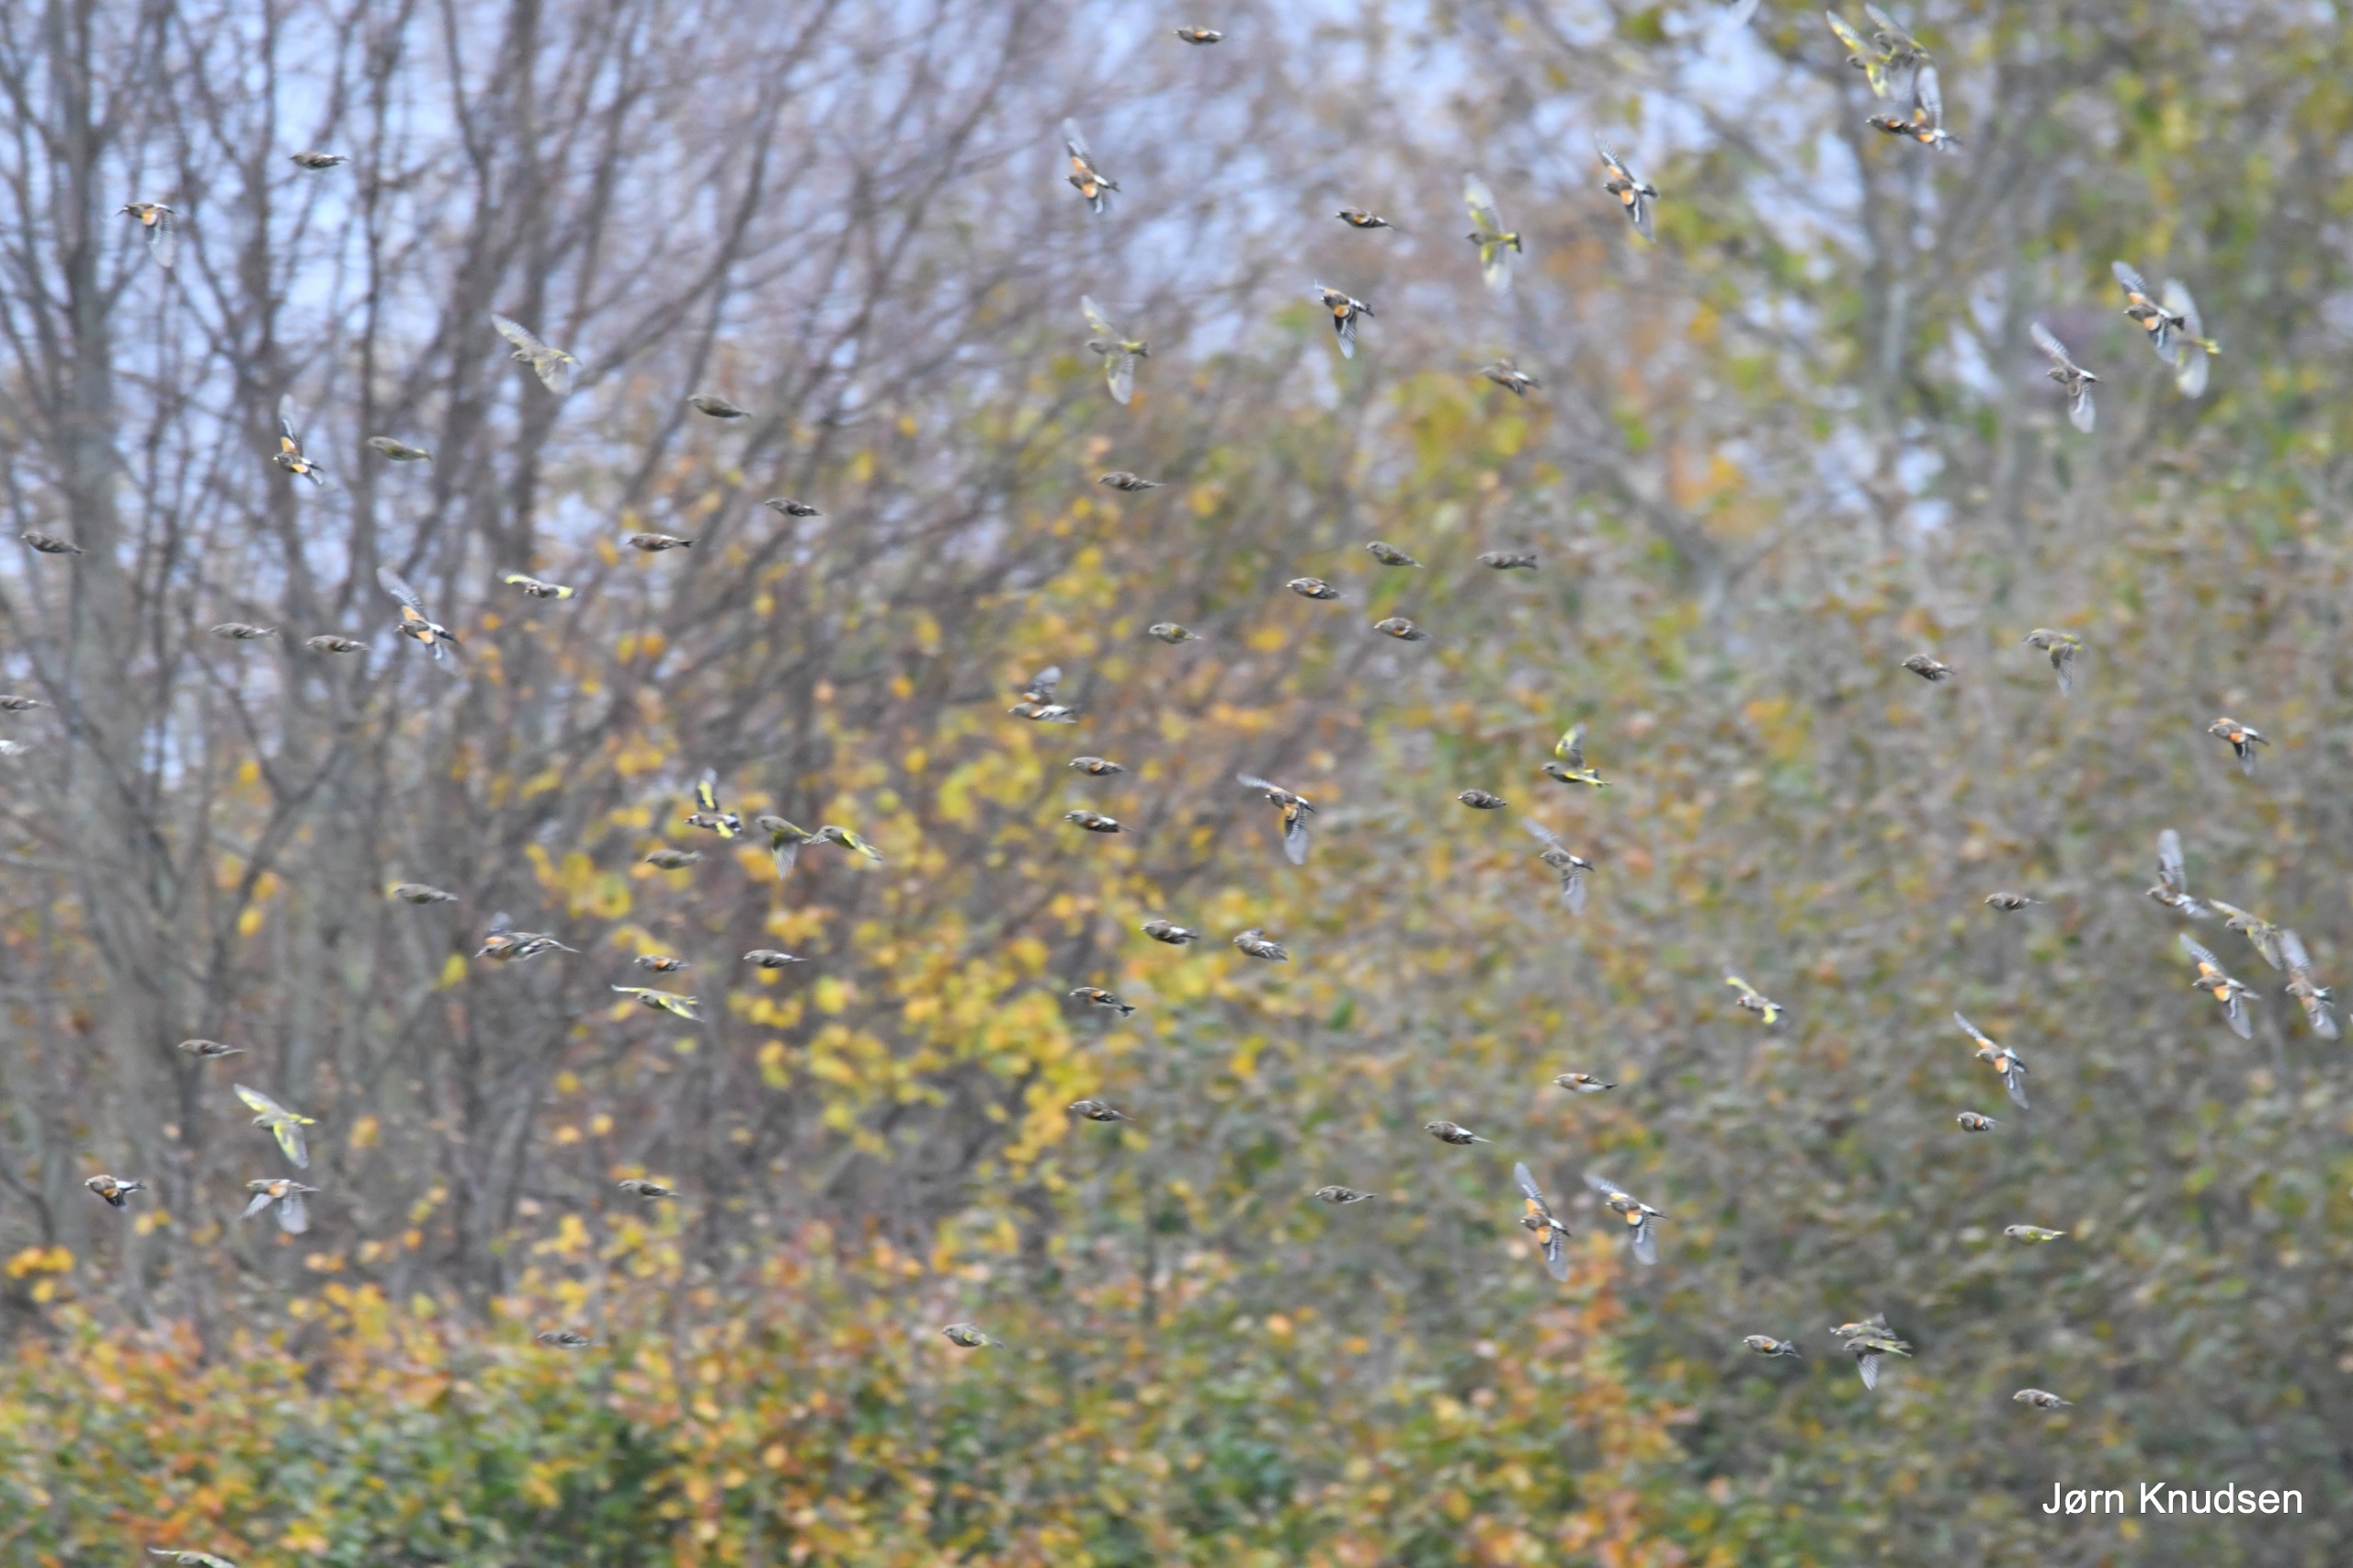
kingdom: Animalia
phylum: Chordata
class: Aves
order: Passeriformes
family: Fringillidae
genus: Carduelis
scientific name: Carduelis carduelis
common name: Stillits
